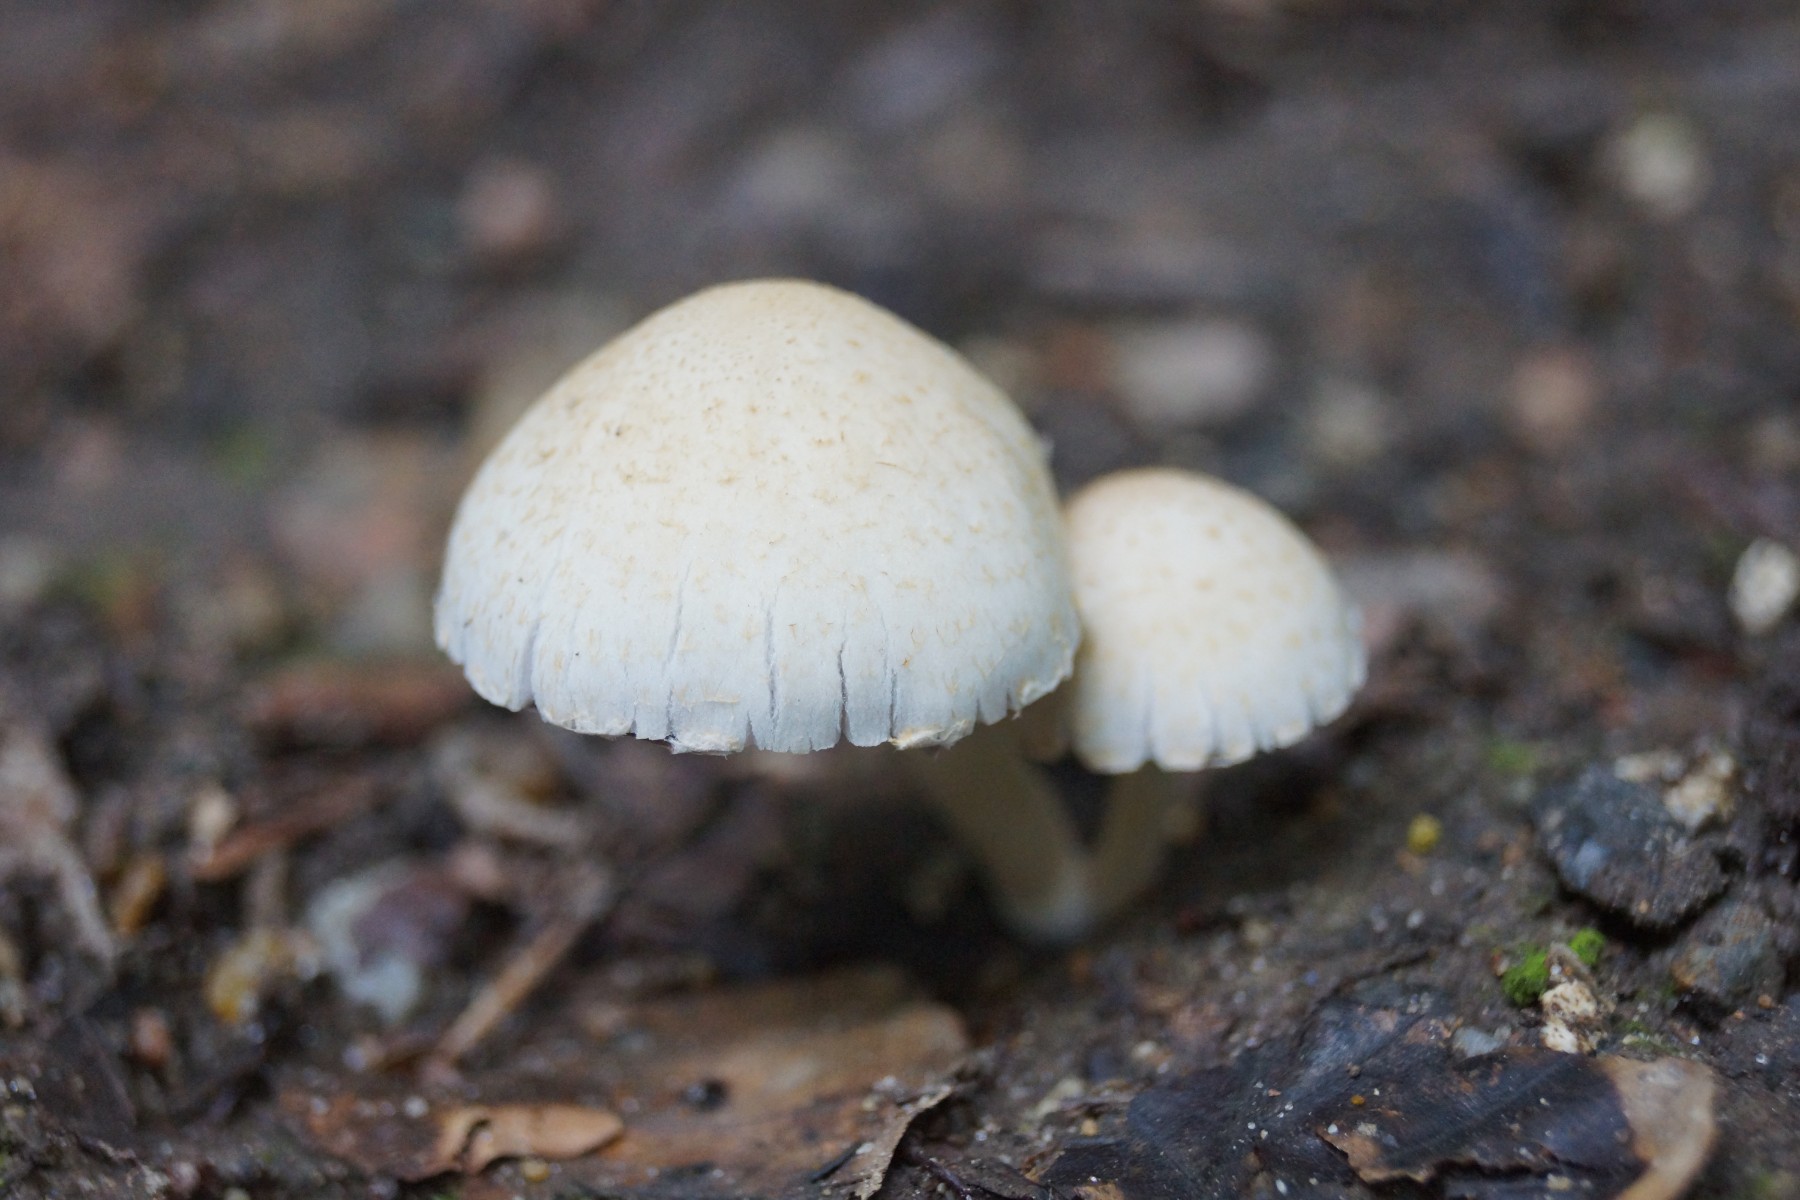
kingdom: Fungi
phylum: Basidiomycota
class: Agaricomycetes
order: Agaricales
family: Psathyrellaceae
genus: Candolleomyces
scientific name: Candolleomyces candolleanus
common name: Candolles mørkhat
